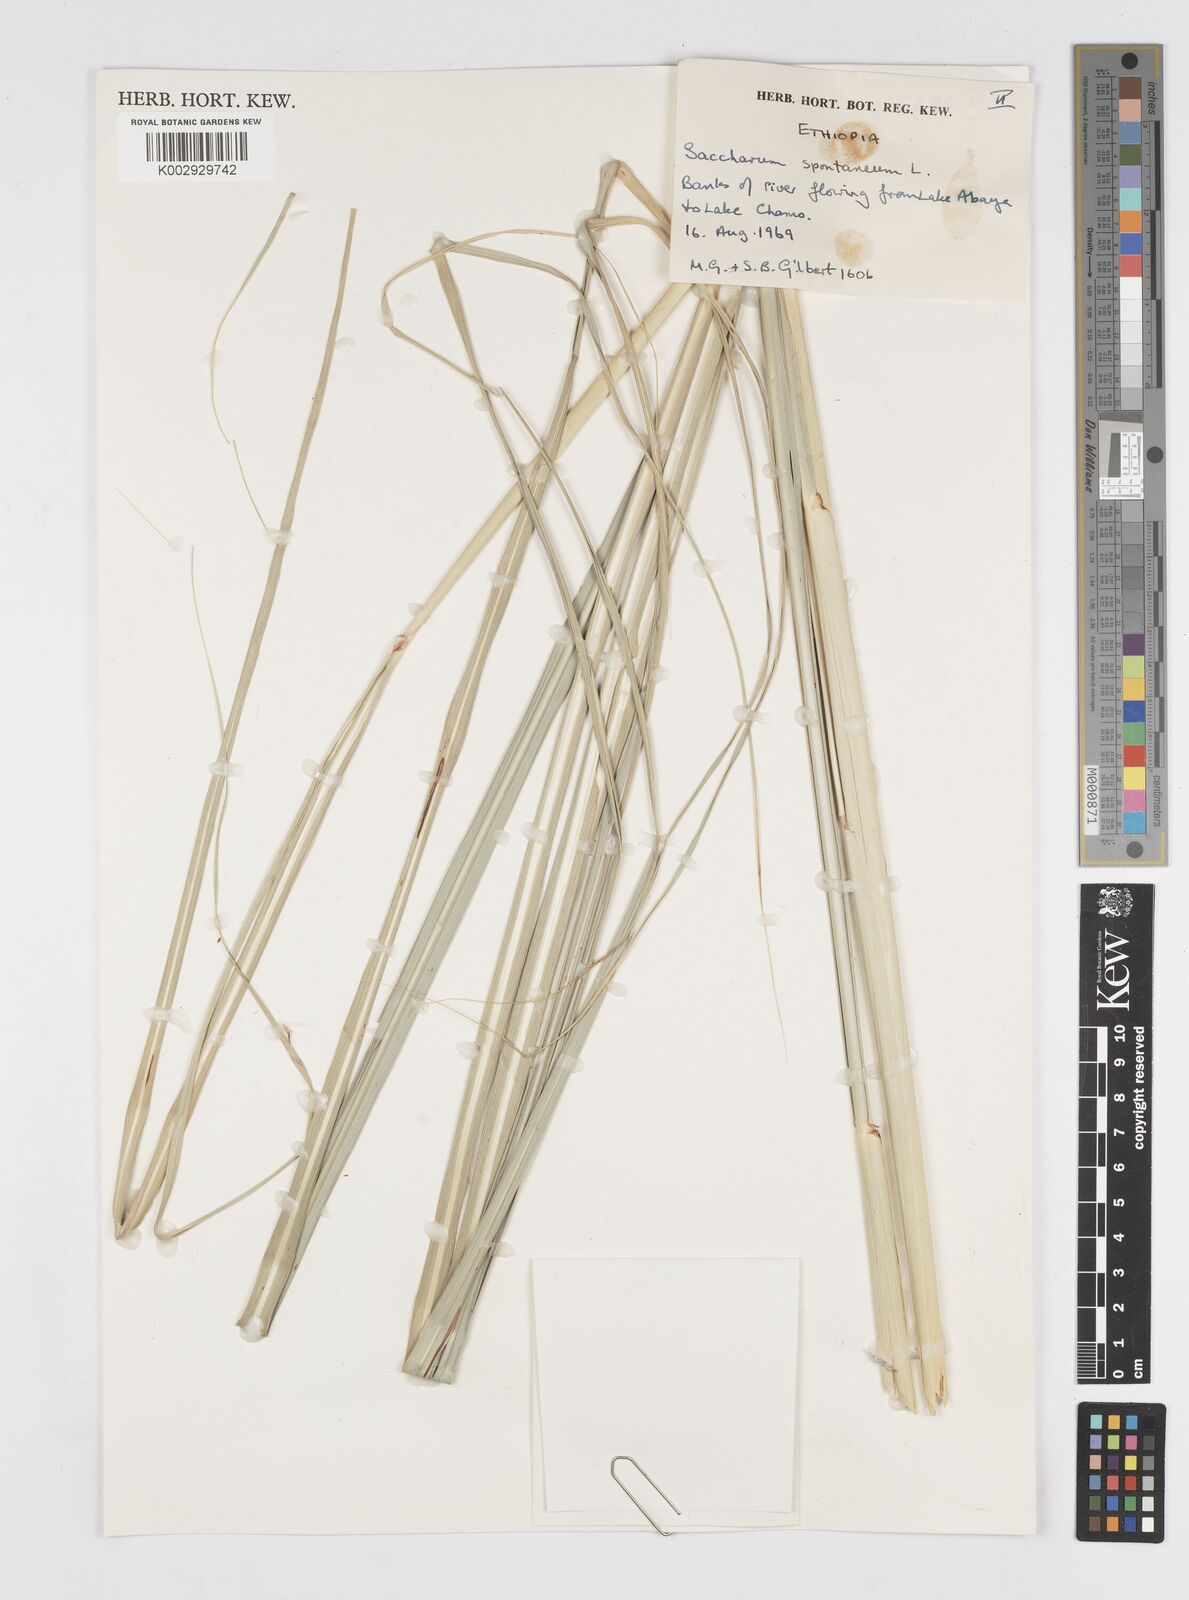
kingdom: Plantae
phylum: Tracheophyta
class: Liliopsida
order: Poales
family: Poaceae
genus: Saccharum
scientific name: Saccharum spontaneum
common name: Wild sugarcane
